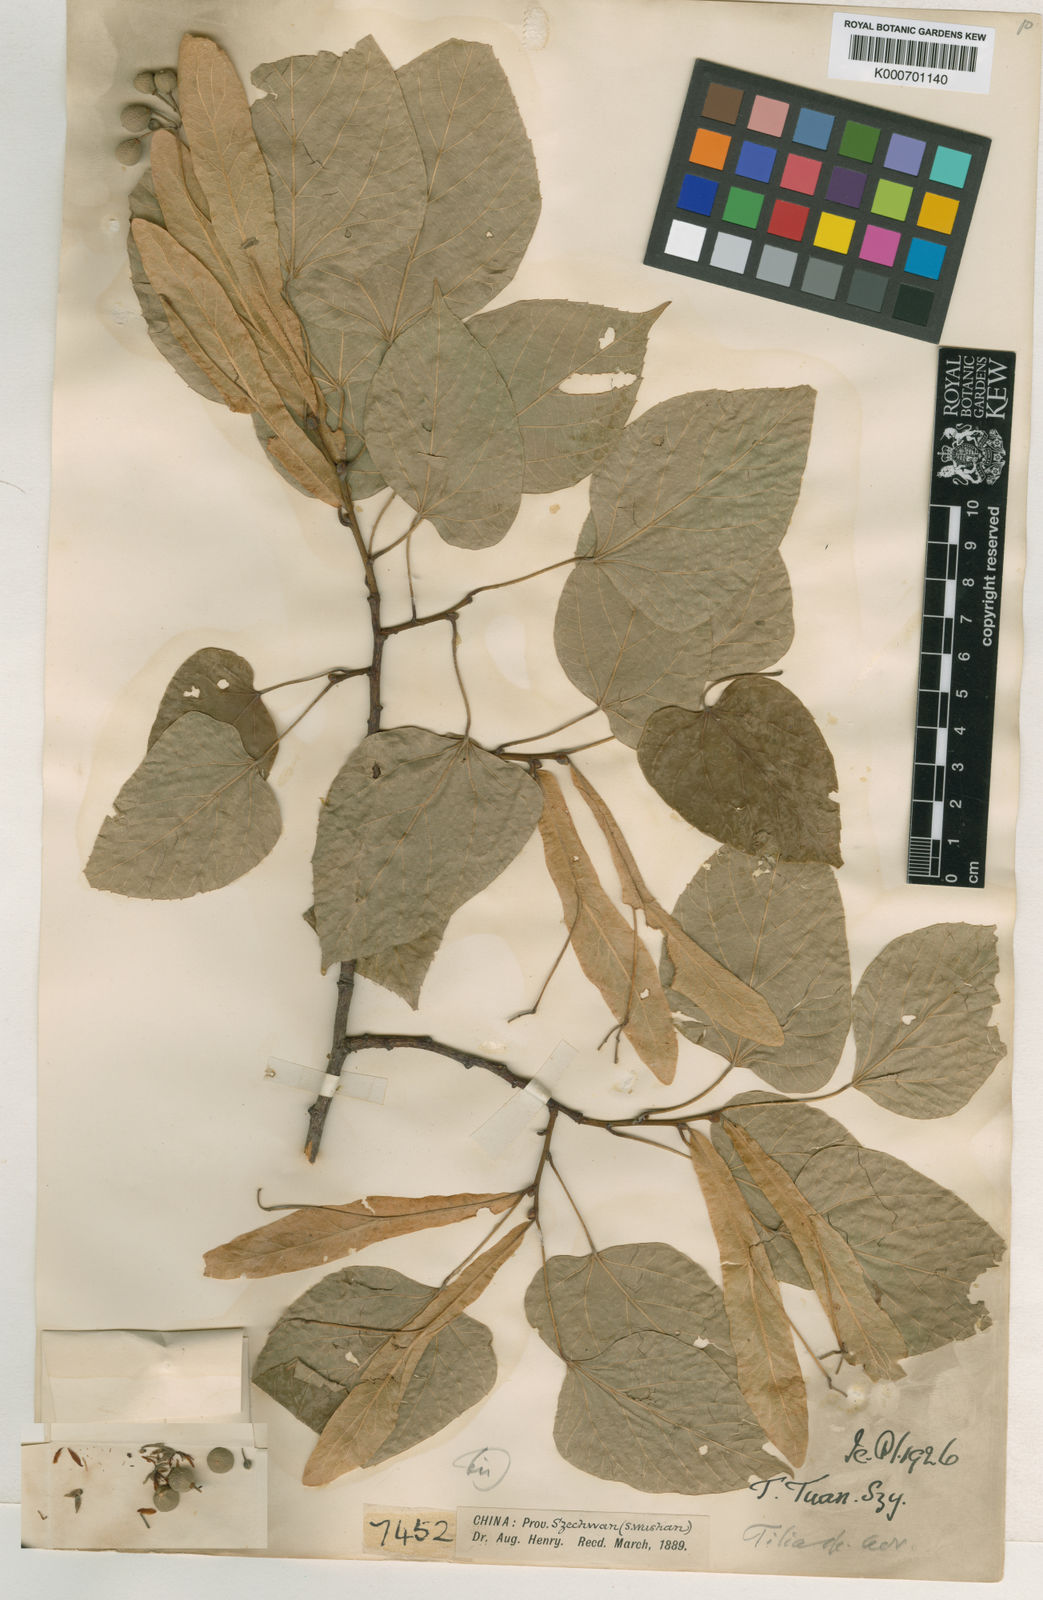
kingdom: Plantae
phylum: Tracheophyta
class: Magnoliopsida
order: Malvales
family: Malvaceae
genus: Tilia
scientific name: Tilia tuan
